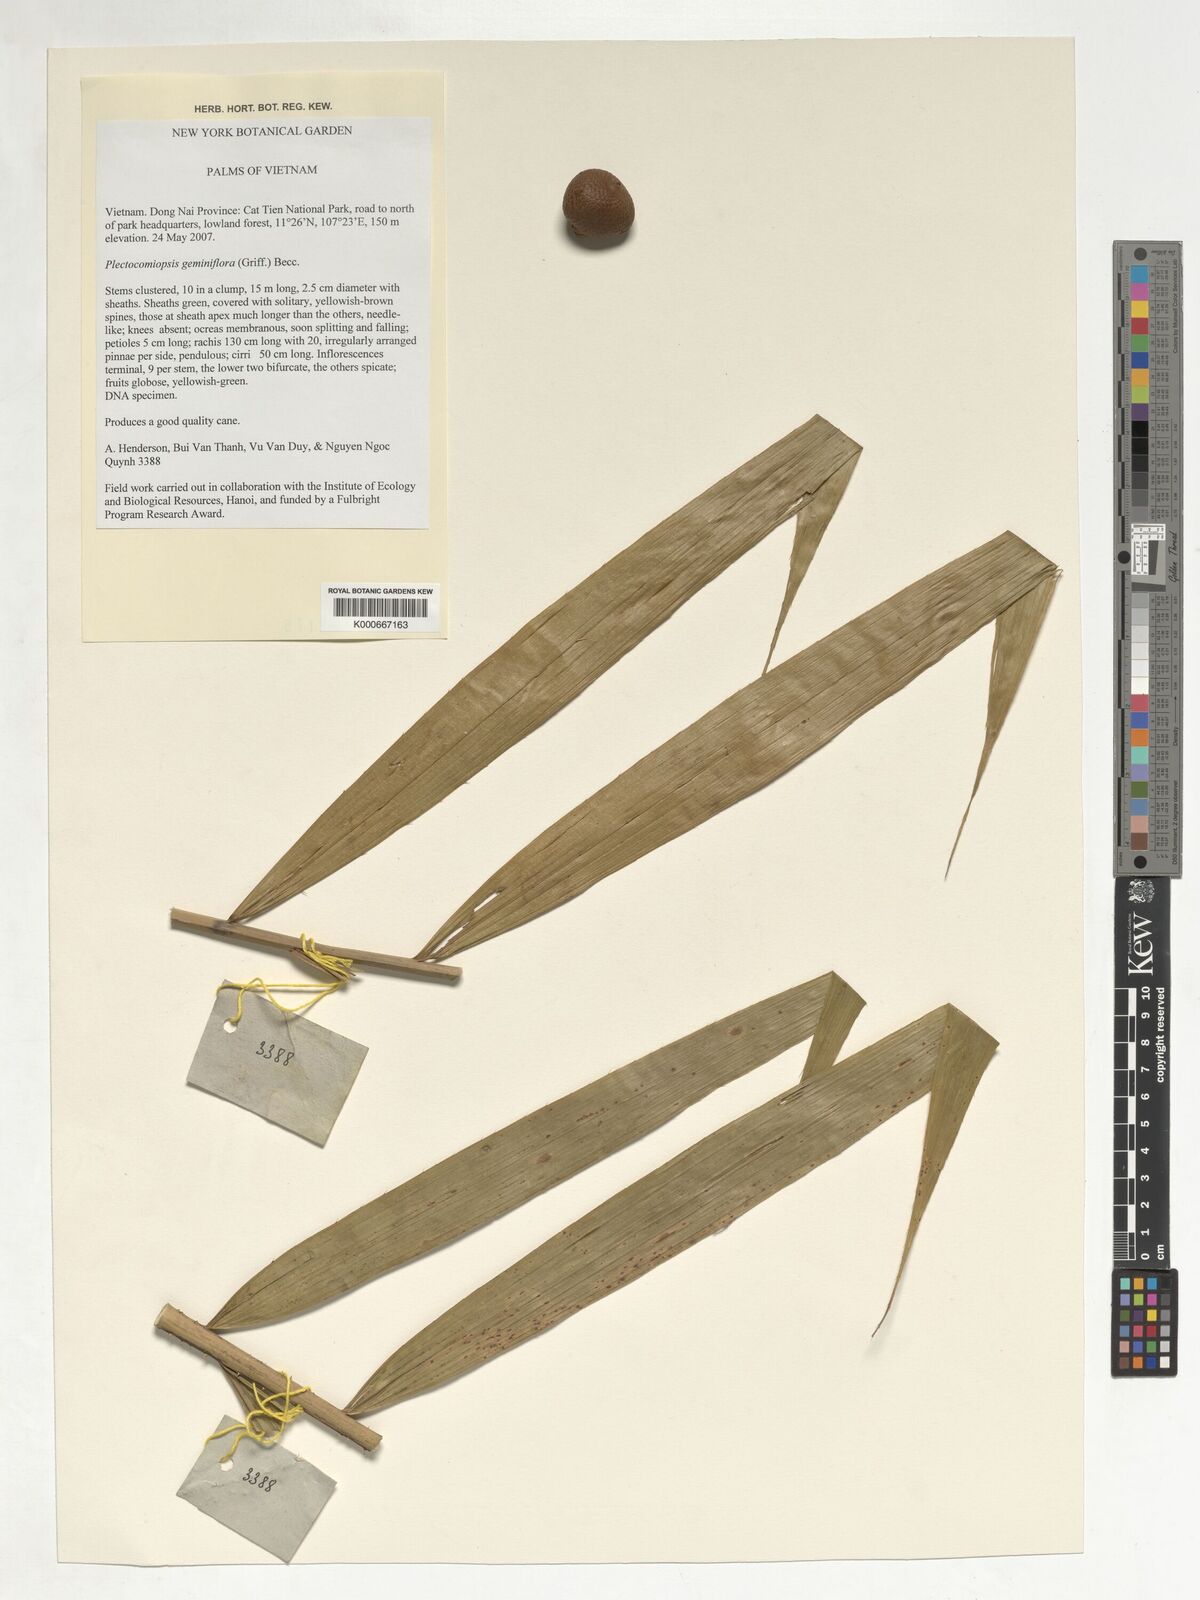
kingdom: Plantae
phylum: Tracheophyta
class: Liliopsida
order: Arecales
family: Arecaceae
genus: Plectocomiopsis
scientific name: Plectocomiopsis geminiflora
